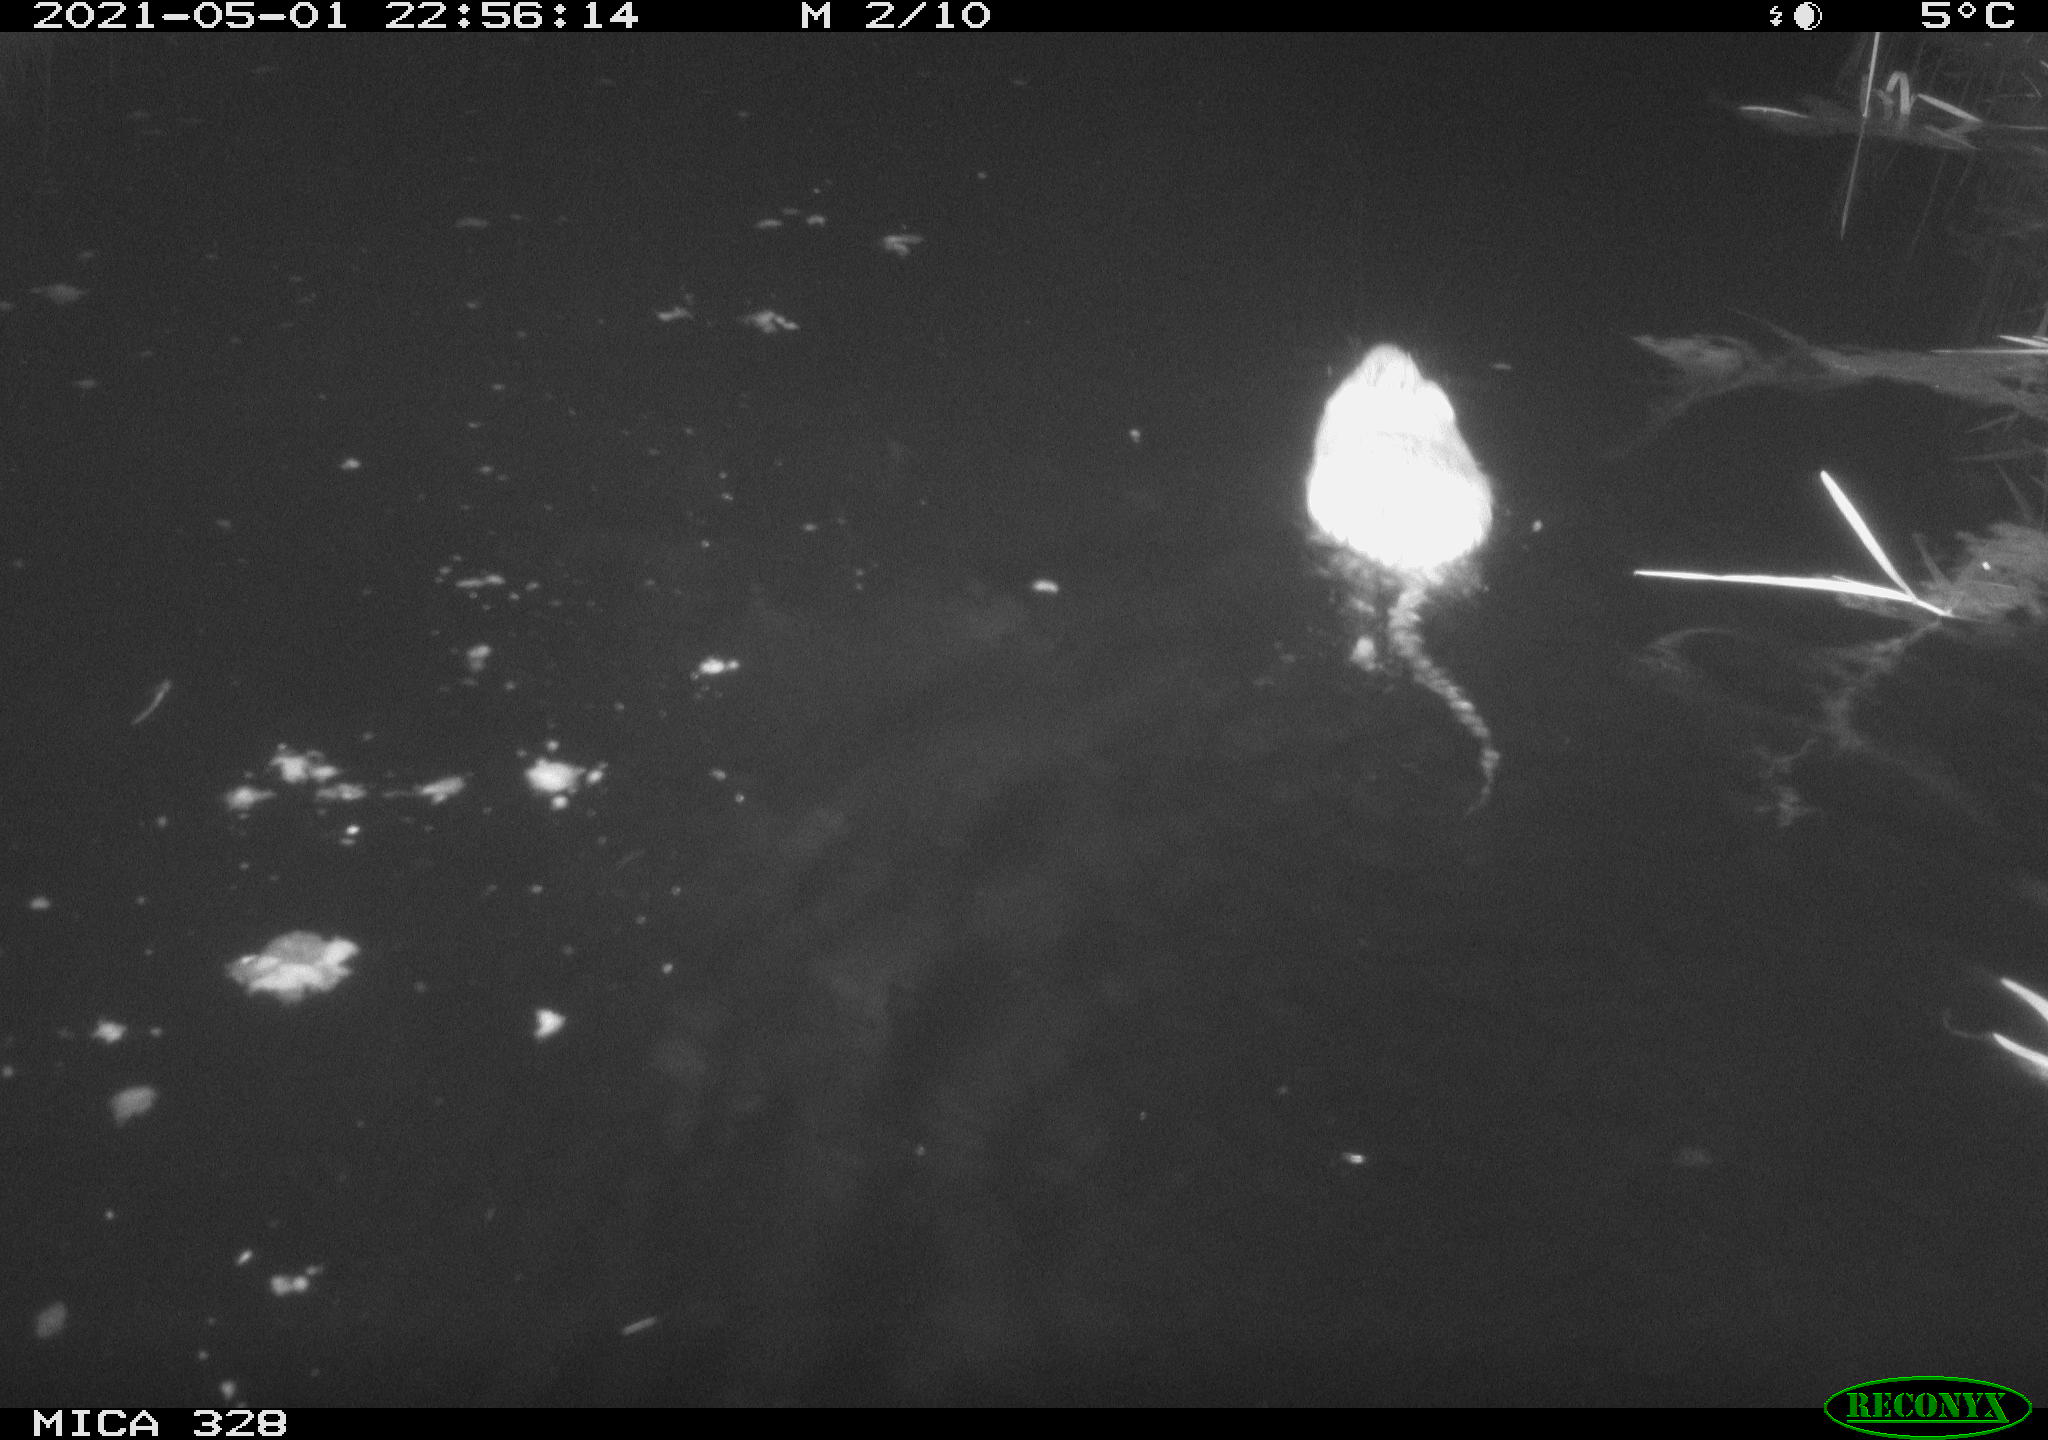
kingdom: Animalia
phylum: Chordata
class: Mammalia
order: Rodentia
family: Cricetidae
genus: Ondatra
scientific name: Ondatra zibethicus
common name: Muskrat
